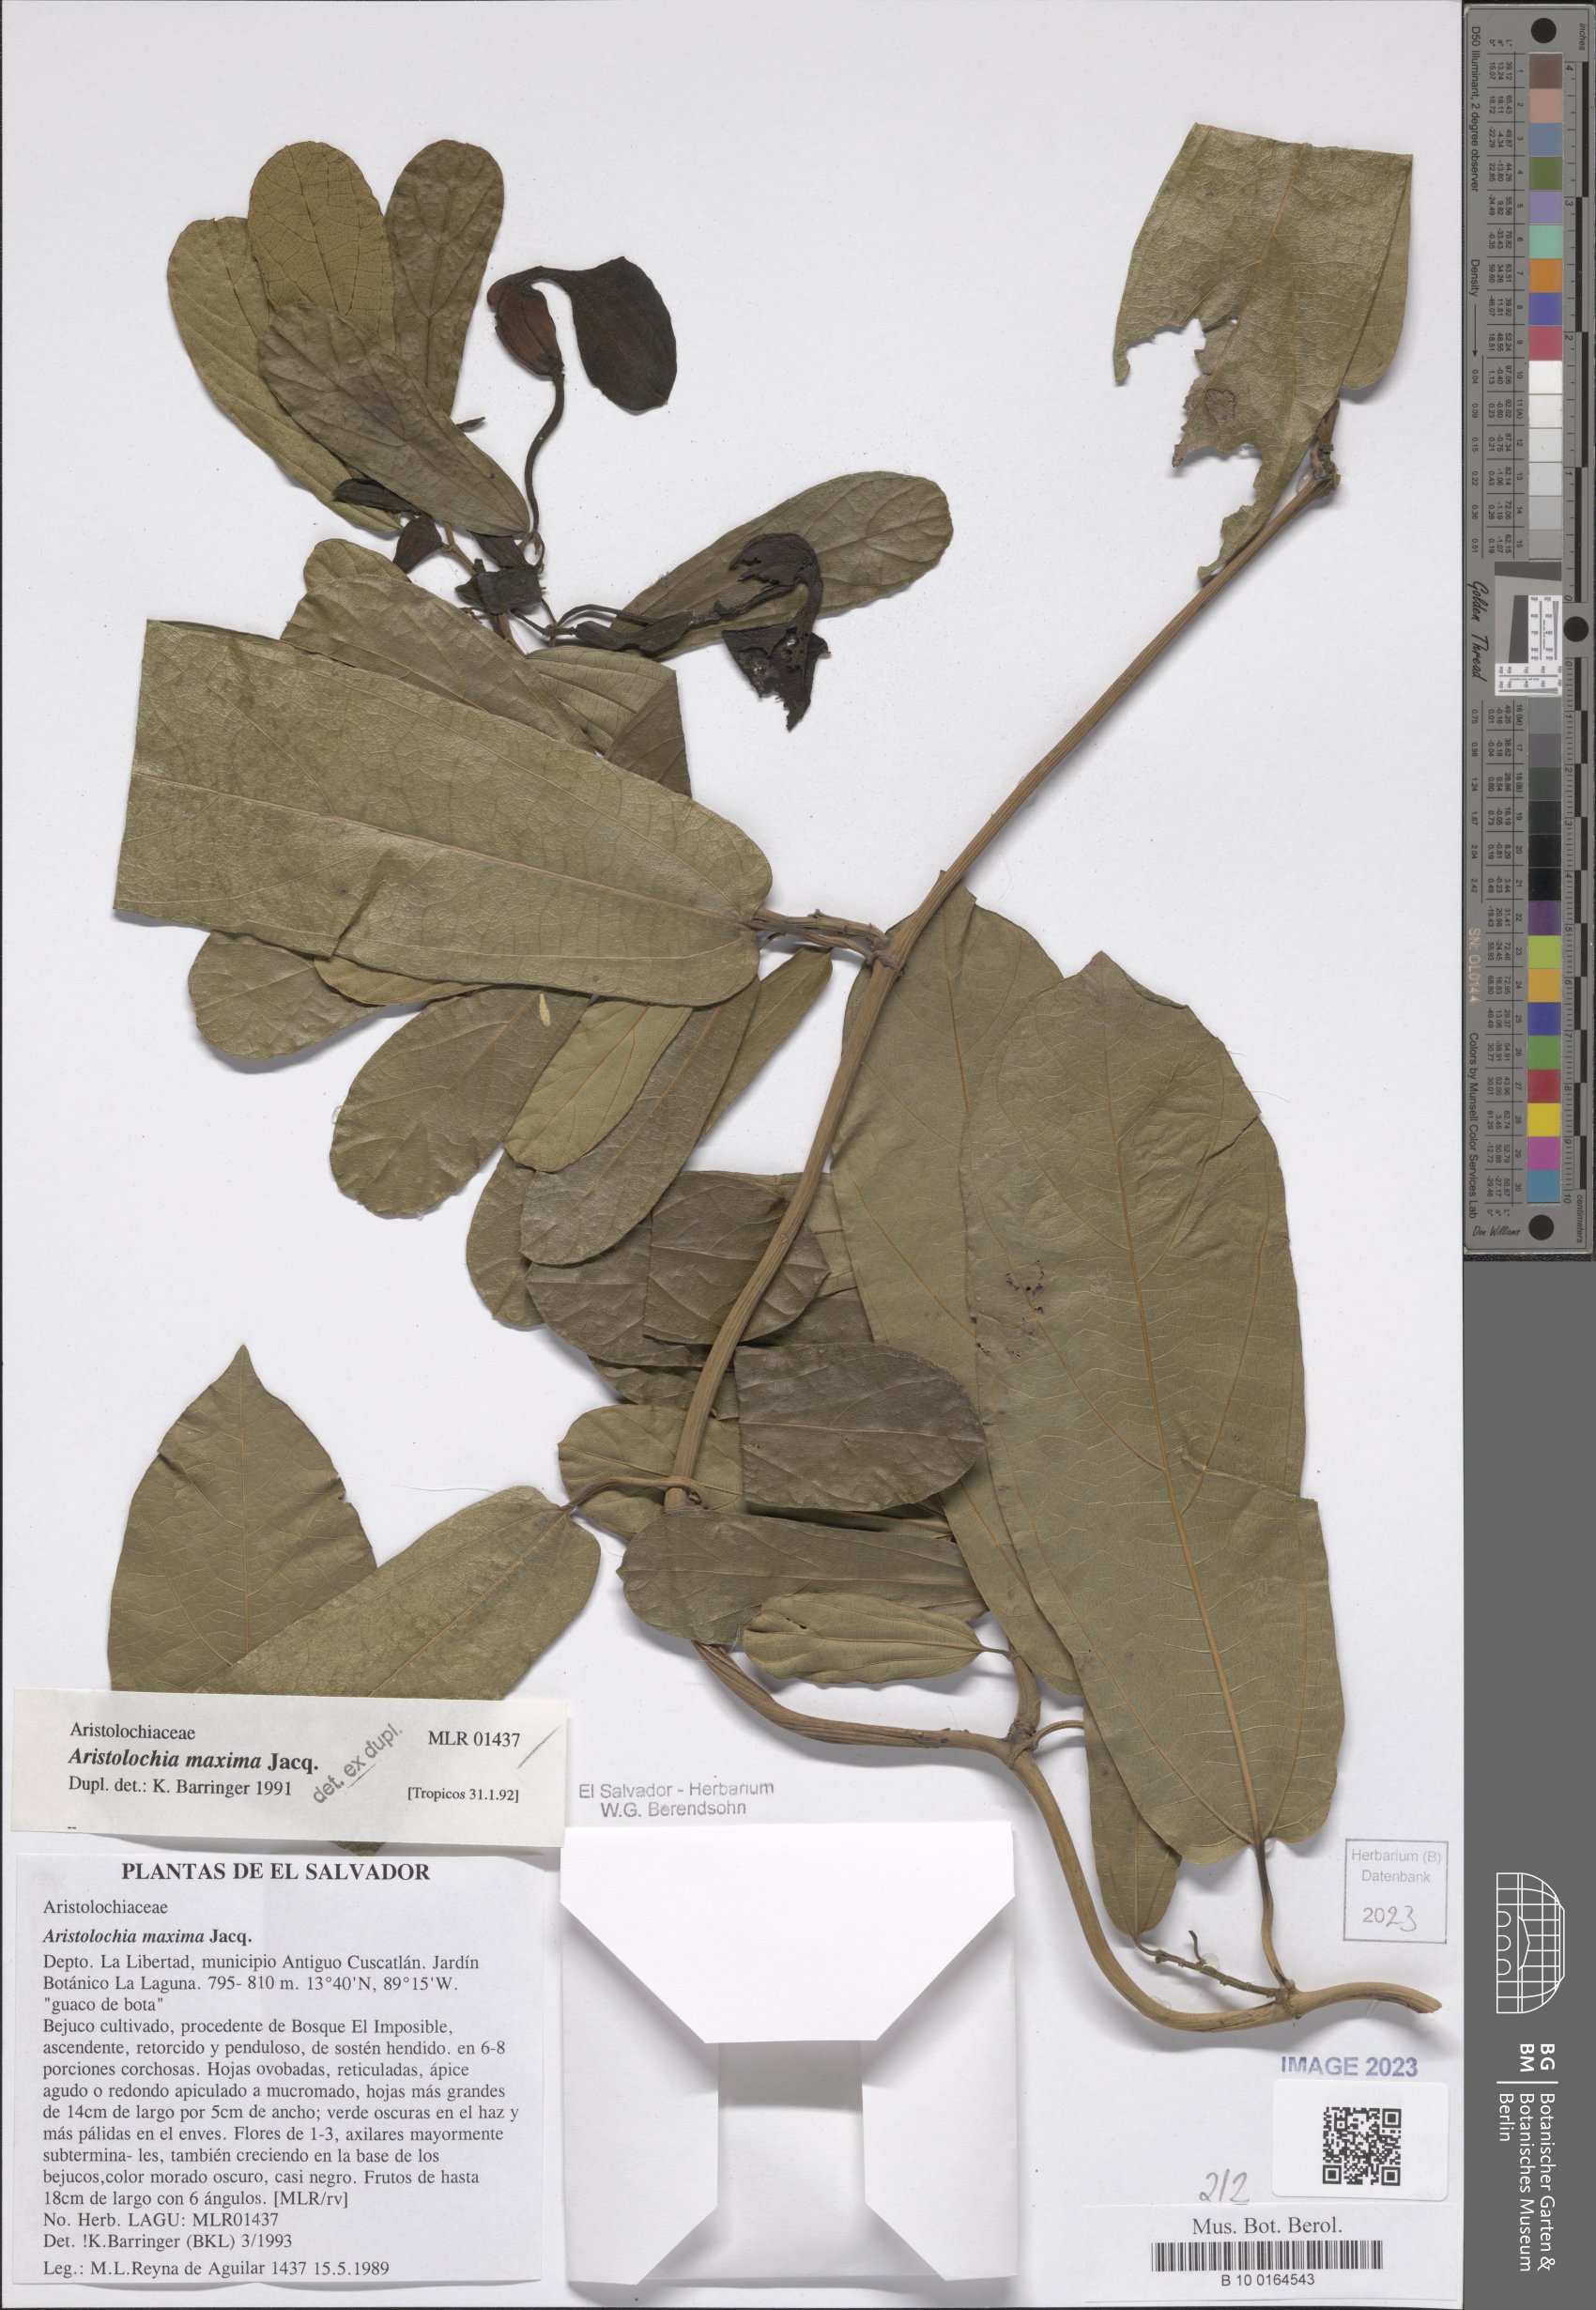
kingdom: Plantae
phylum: Tracheophyta
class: Magnoliopsida
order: Piperales
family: Aristolochiaceae
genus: Aristolochia
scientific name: Aristolochia maxima
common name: Florida dutchman's pipe
